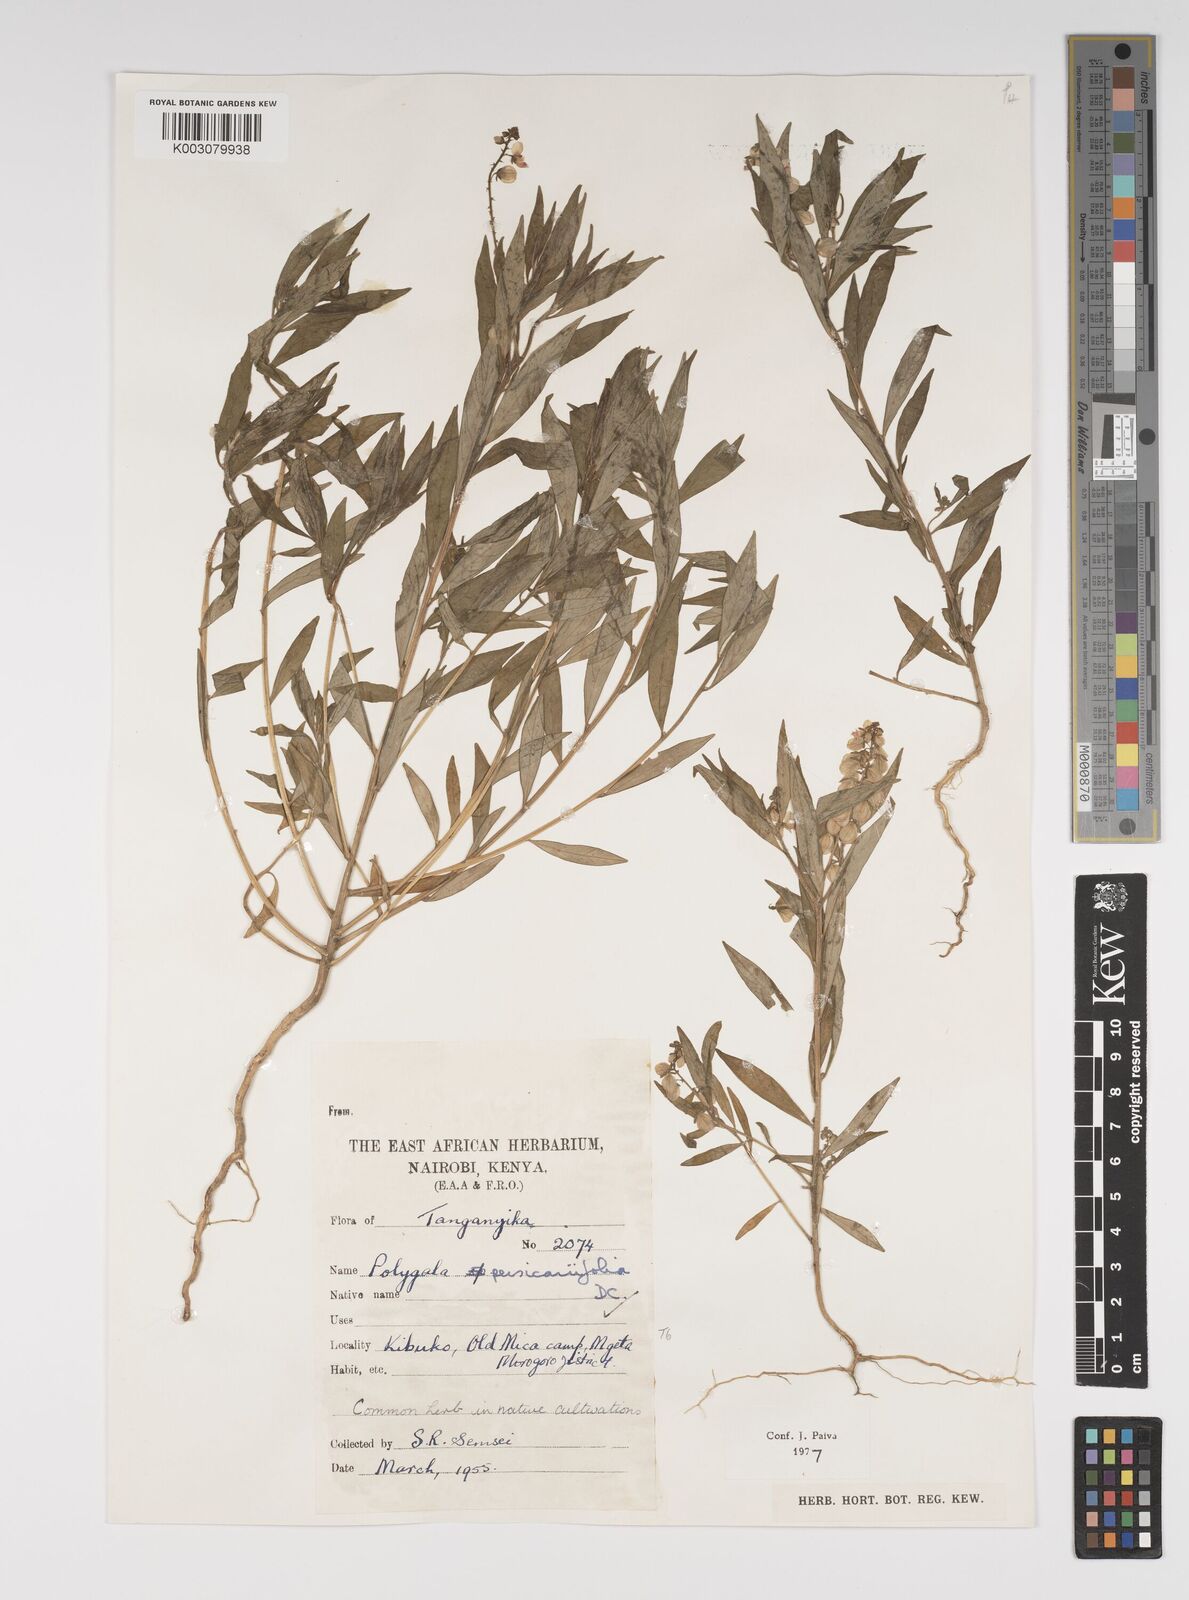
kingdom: Plantae
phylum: Tracheophyta
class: Magnoliopsida
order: Fabales
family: Polygalaceae
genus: Polygala
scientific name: Polygala persicariifolia
